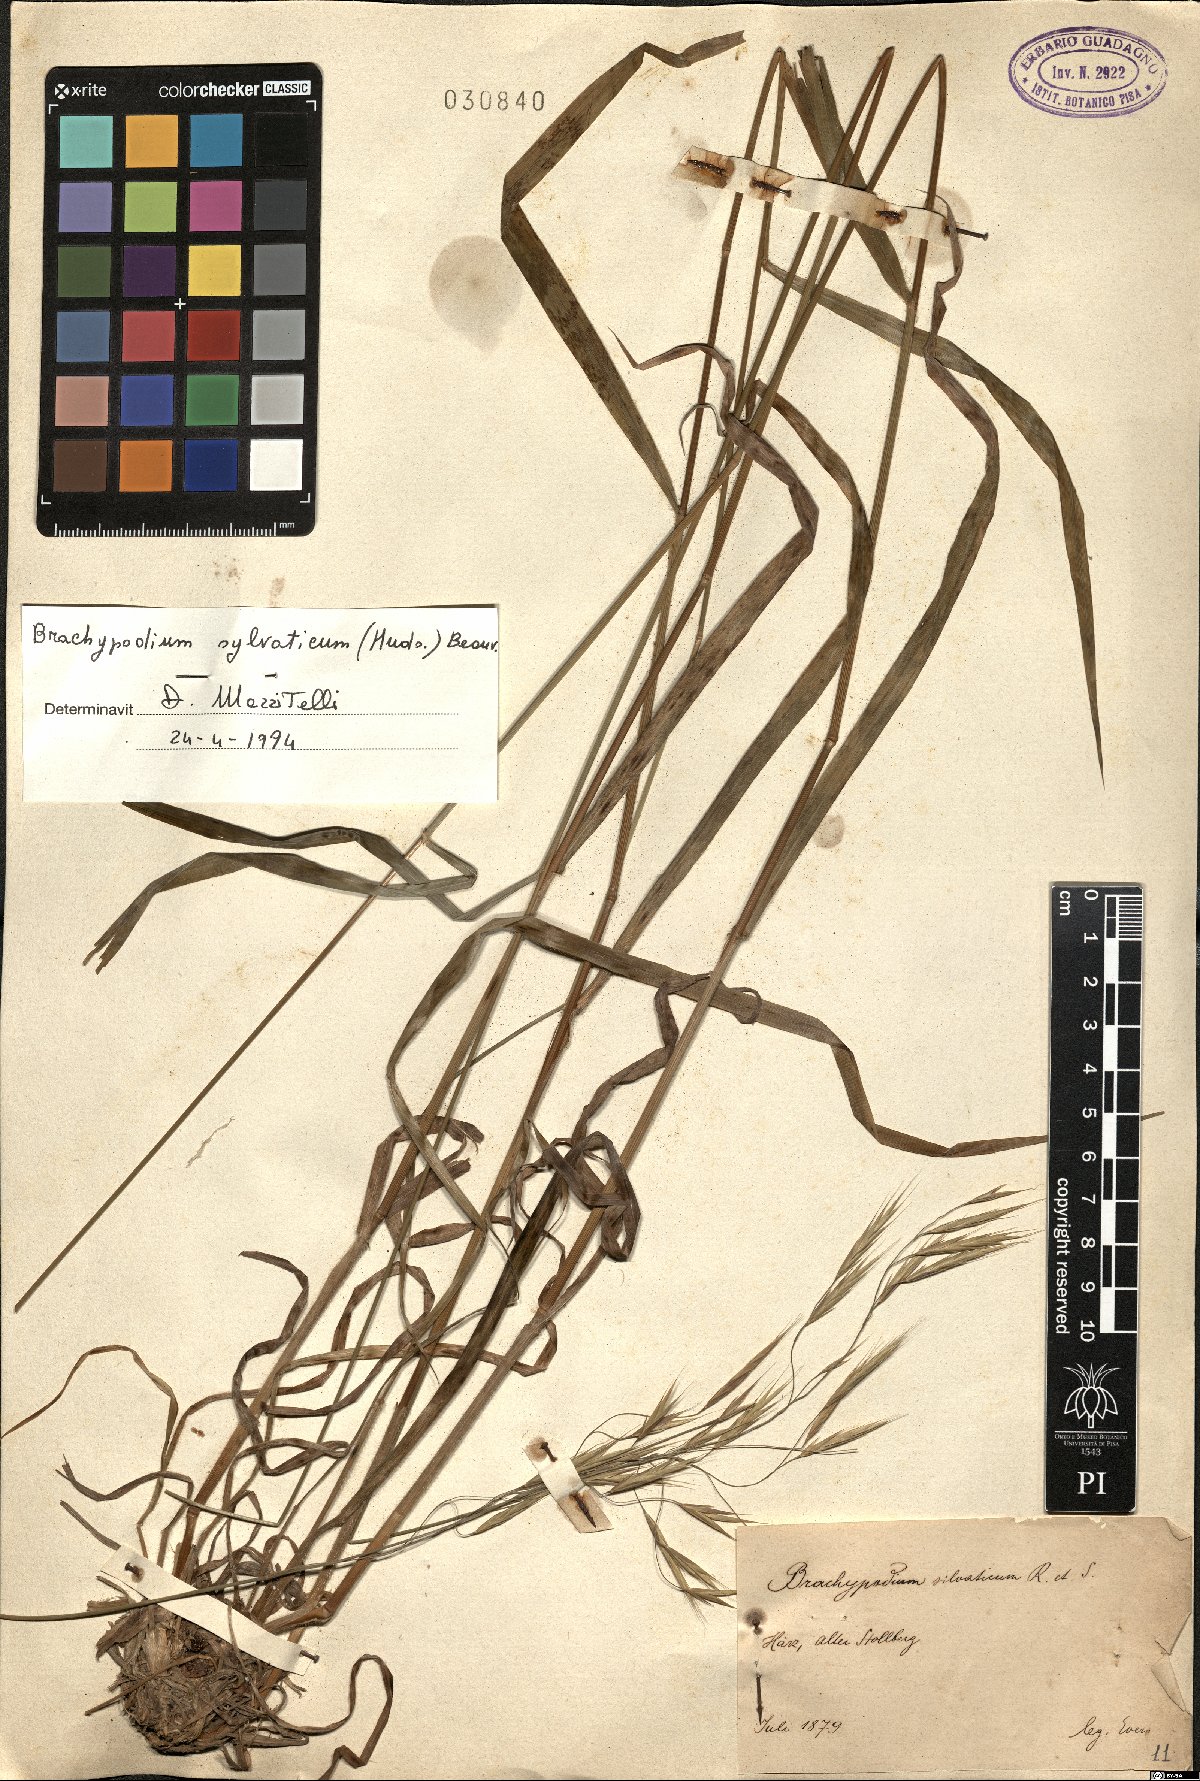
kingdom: Plantae
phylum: Tracheophyta
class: Liliopsida
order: Poales
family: Poaceae
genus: Brachypodium
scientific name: Brachypodium sylvaticum
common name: False-brome
